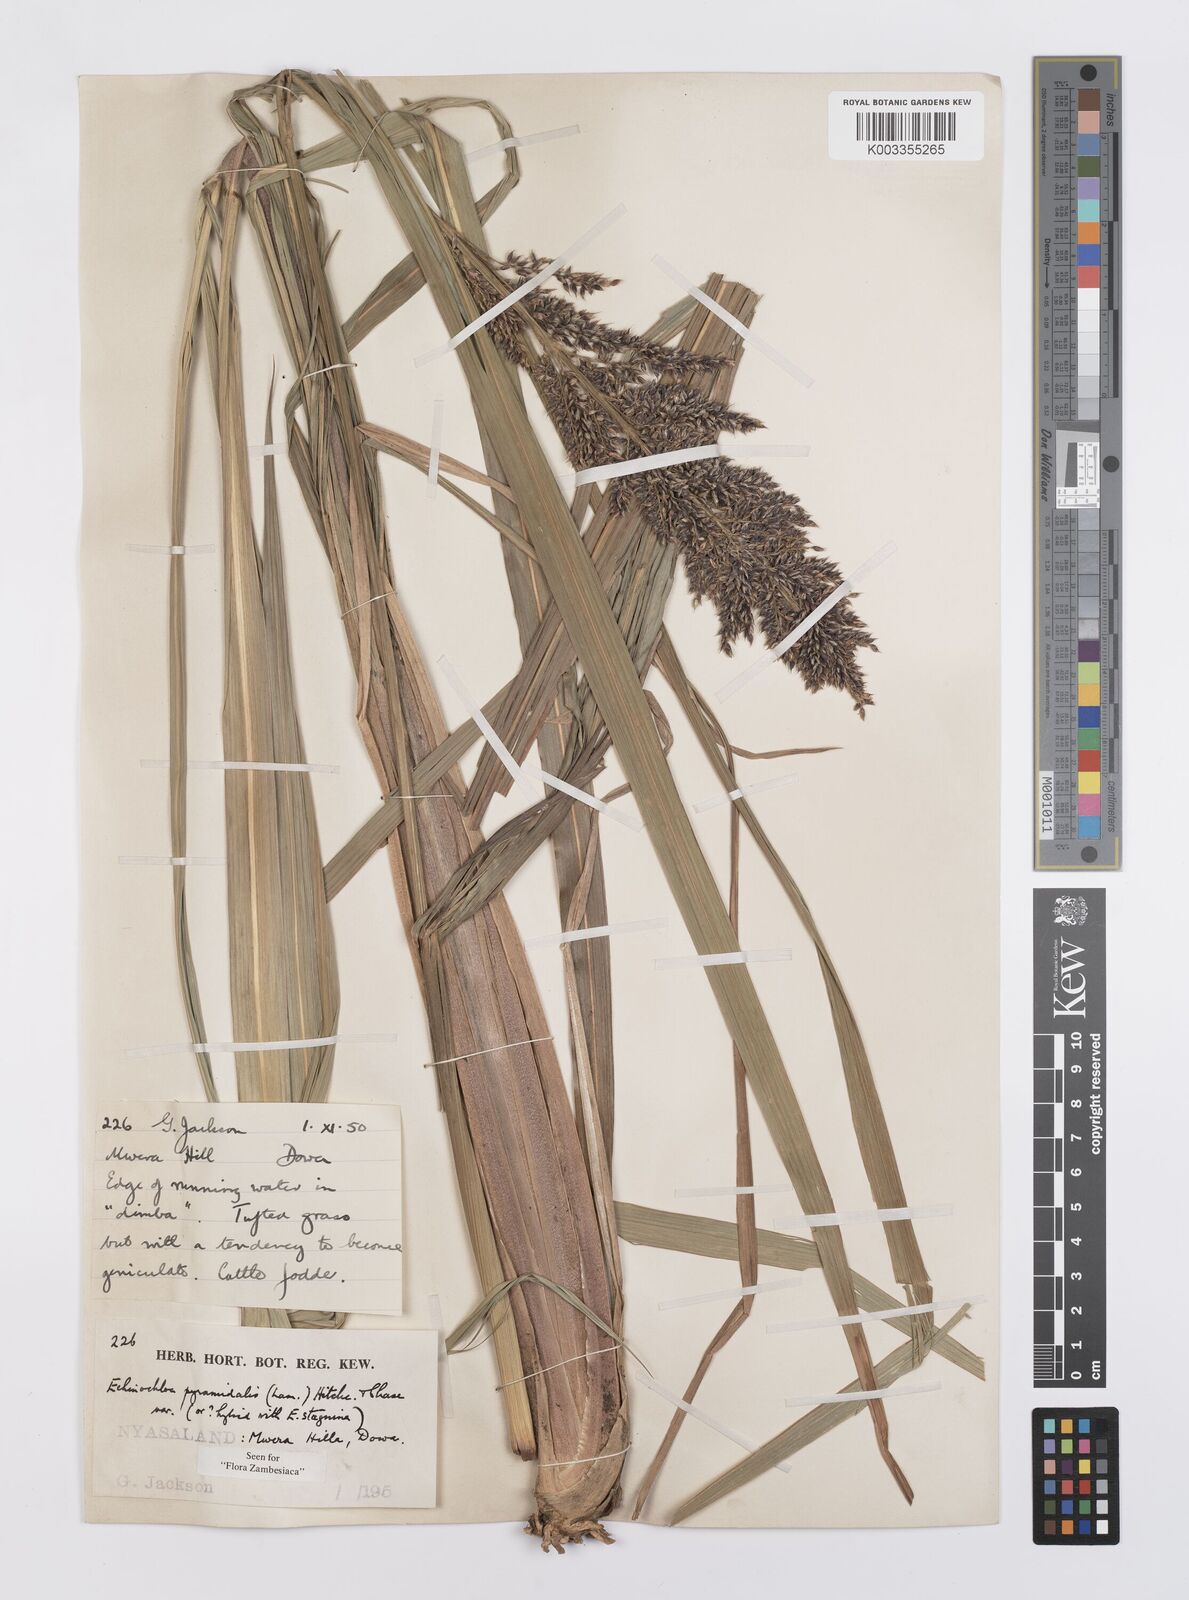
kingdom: Plantae
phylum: Tracheophyta
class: Liliopsida
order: Poales
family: Poaceae
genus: Echinochloa
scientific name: Echinochloa pyramidalis
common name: Antelope grass
